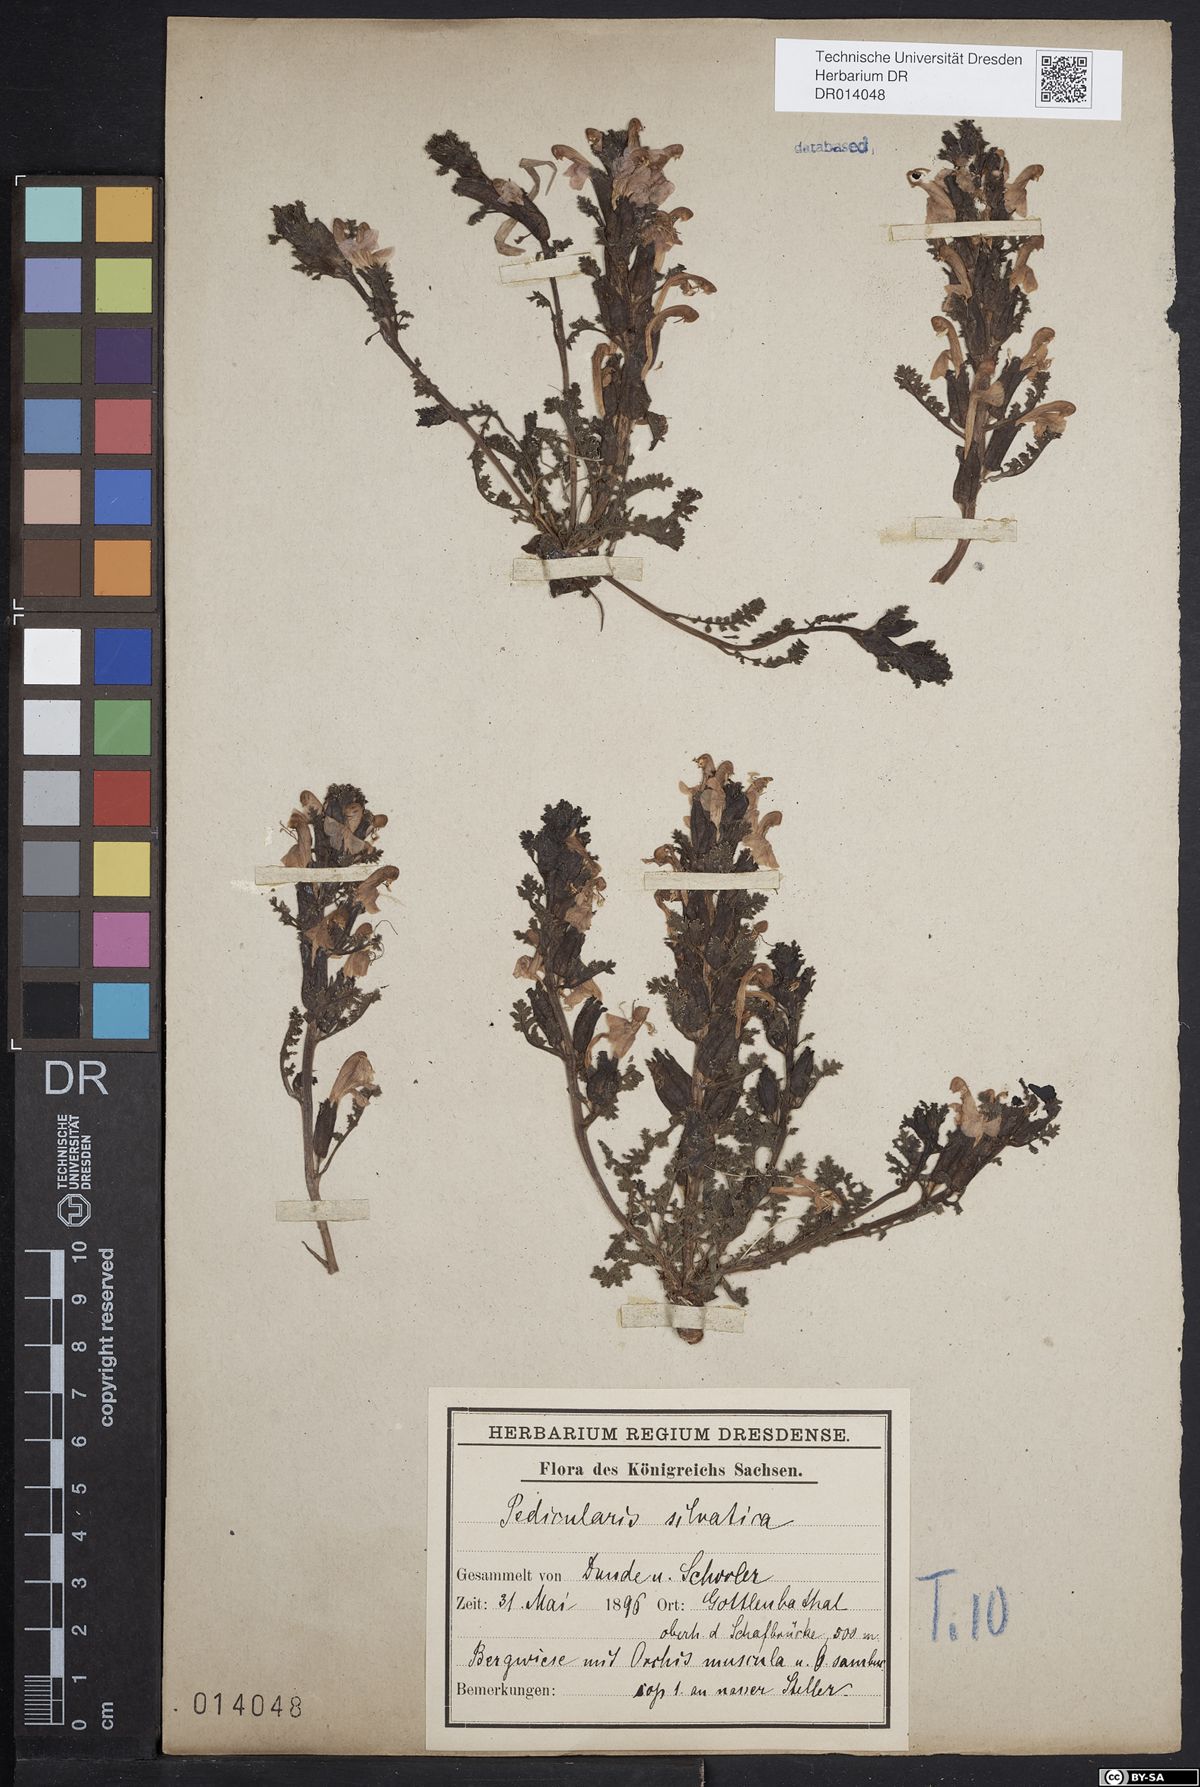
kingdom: Plantae
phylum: Tracheophyta
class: Magnoliopsida
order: Lamiales
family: Orobanchaceae
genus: Pedicularis
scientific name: Pedicularis sylvatica
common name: Lousewort
